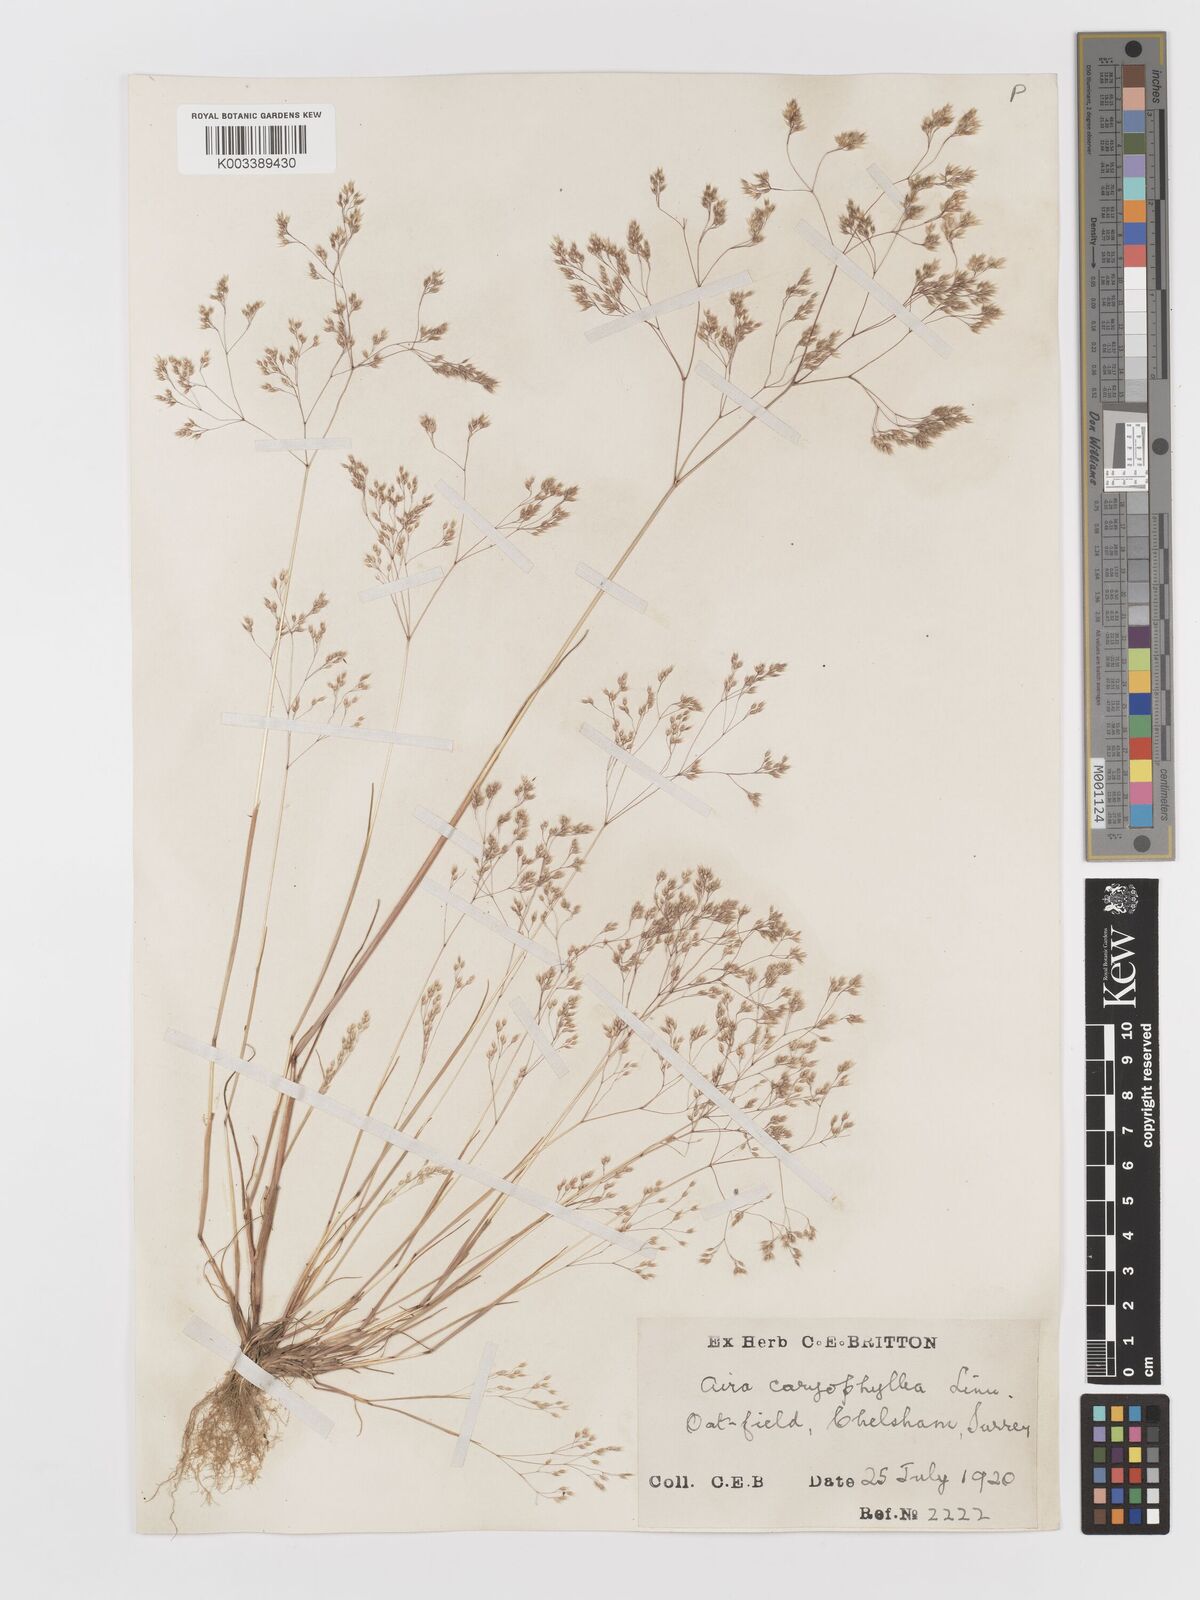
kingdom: Plantae
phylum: Tracheophyta
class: Liliopsida
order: Poales
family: Poaceae
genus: Aira
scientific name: Aira caryophyllea
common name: Silver hairgrass
